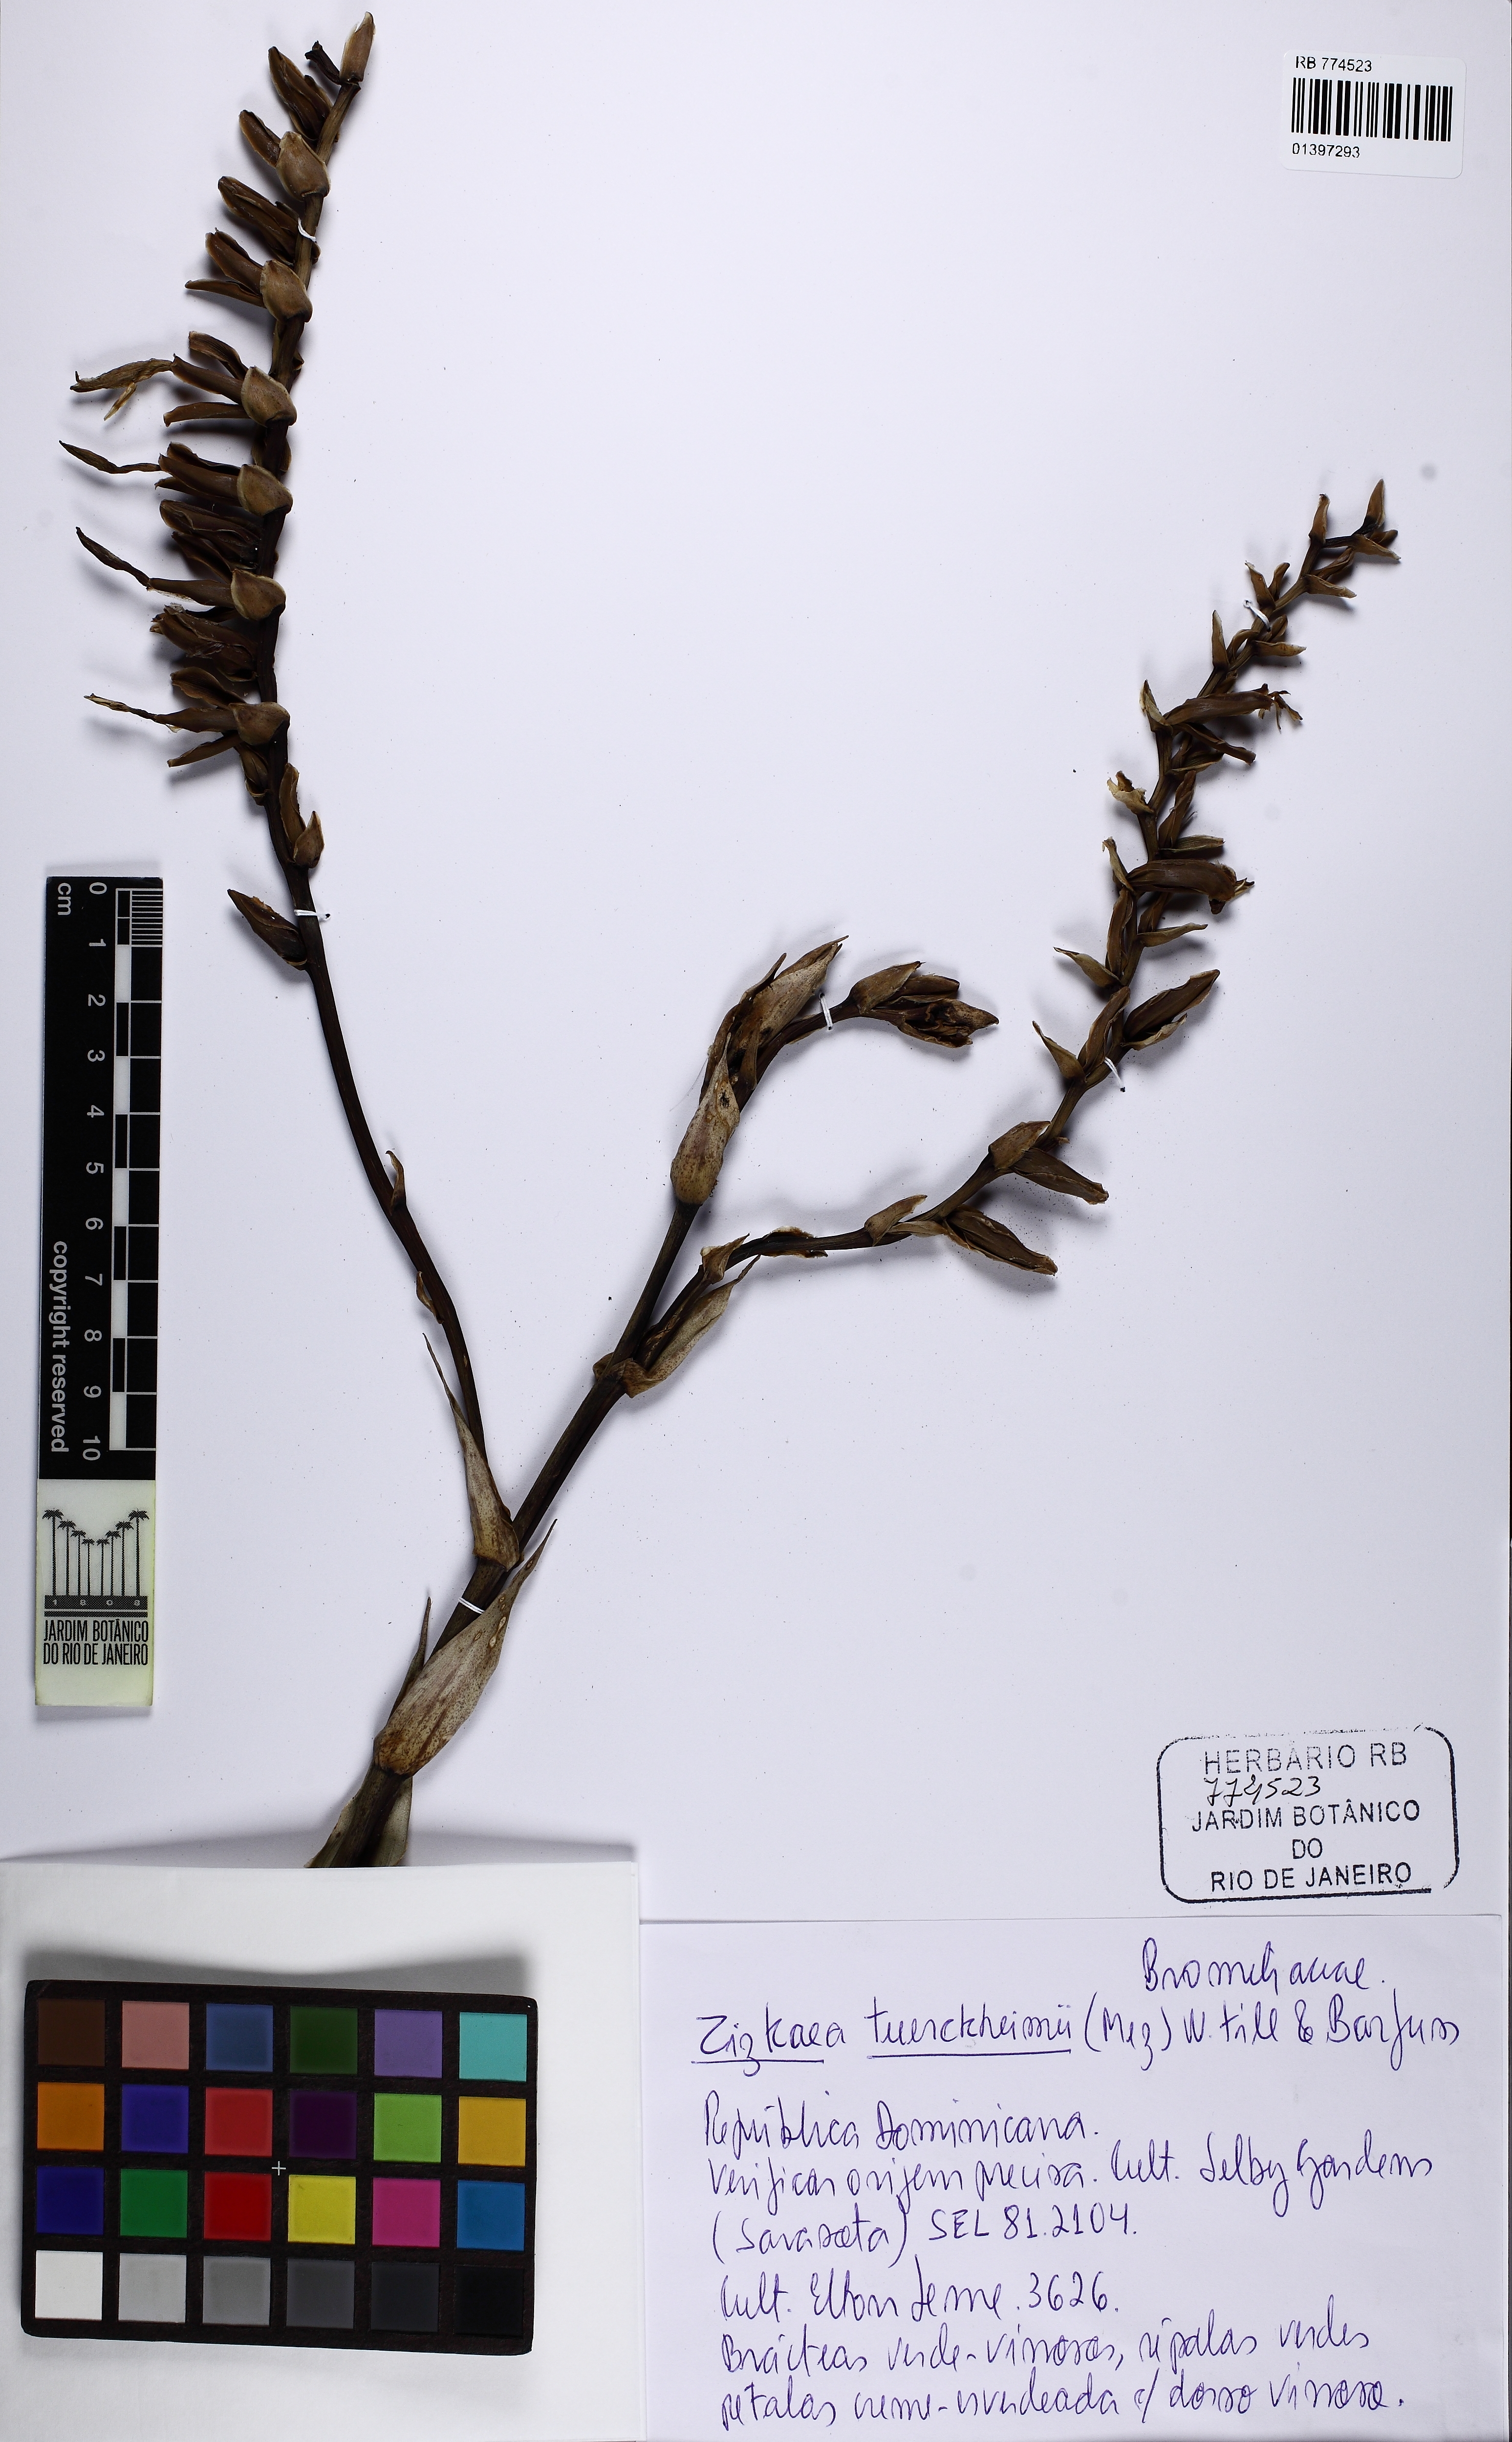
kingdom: Plantae
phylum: Tracheophyta
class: Liliopsida
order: Poales
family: Bromeliaceae
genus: Zizkaea
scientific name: Zizkaea tuerckheimii
